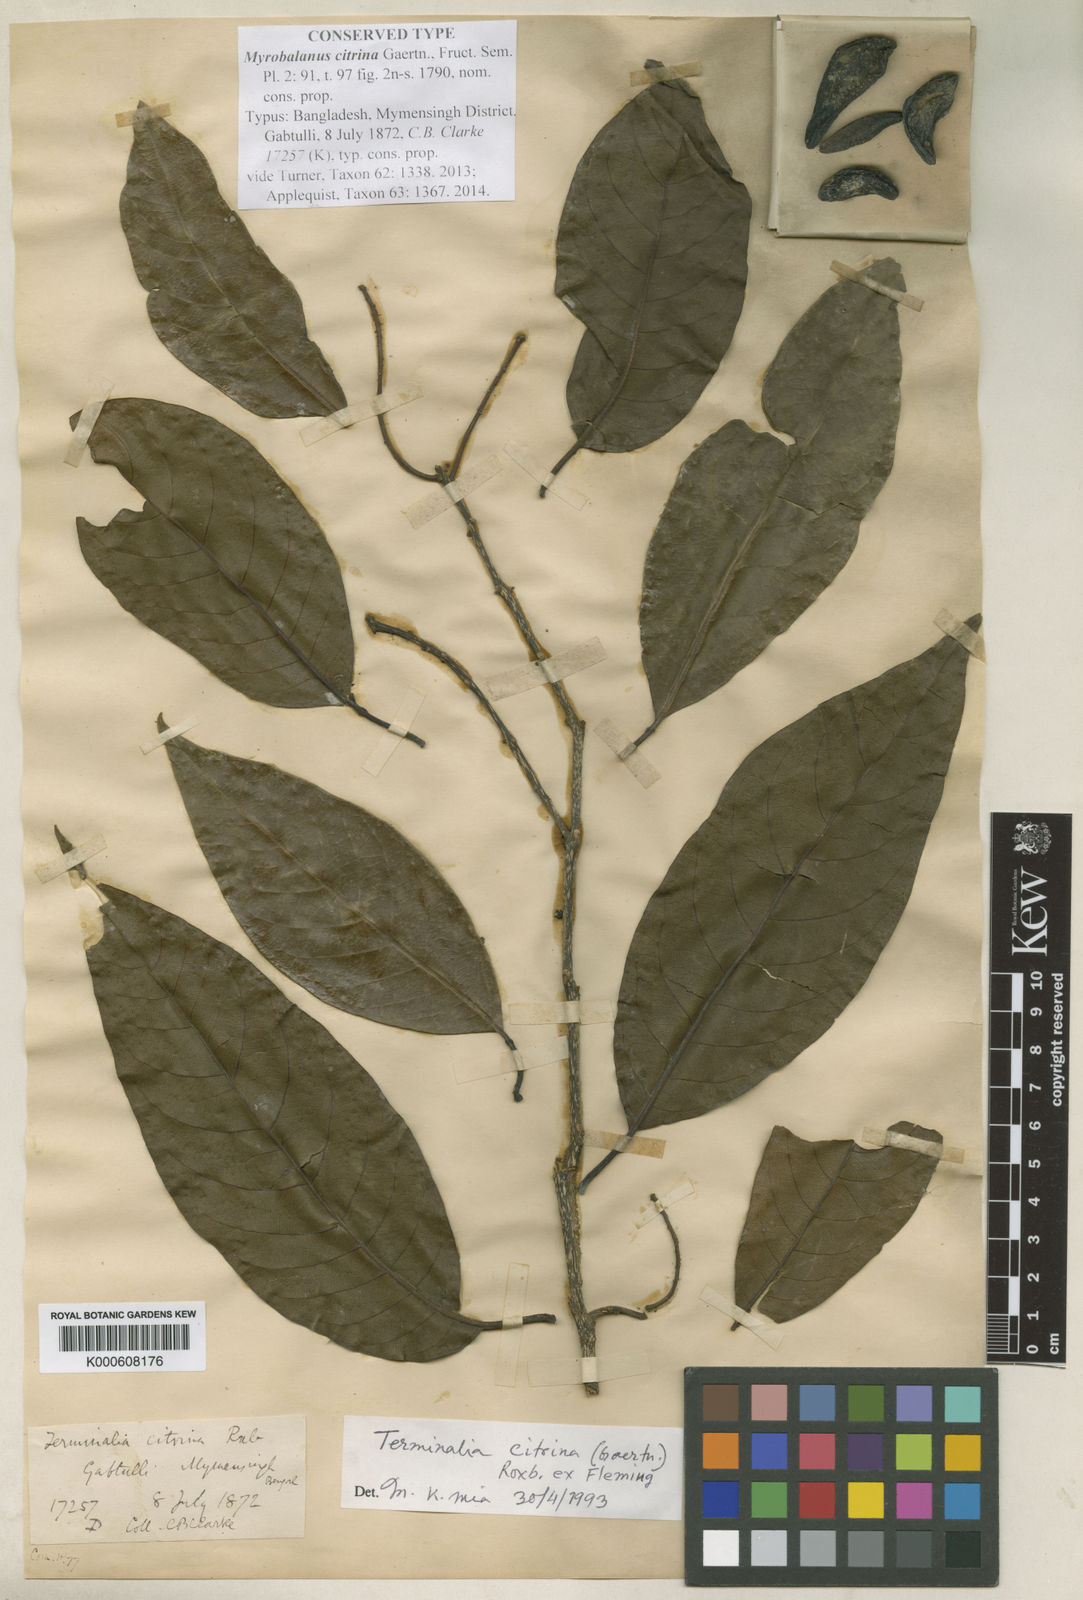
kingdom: Plantae
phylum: Tracheophyta
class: Magnoliopsida
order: Myrtales
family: Combretaceae
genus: Terminalia
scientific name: Terminalia
